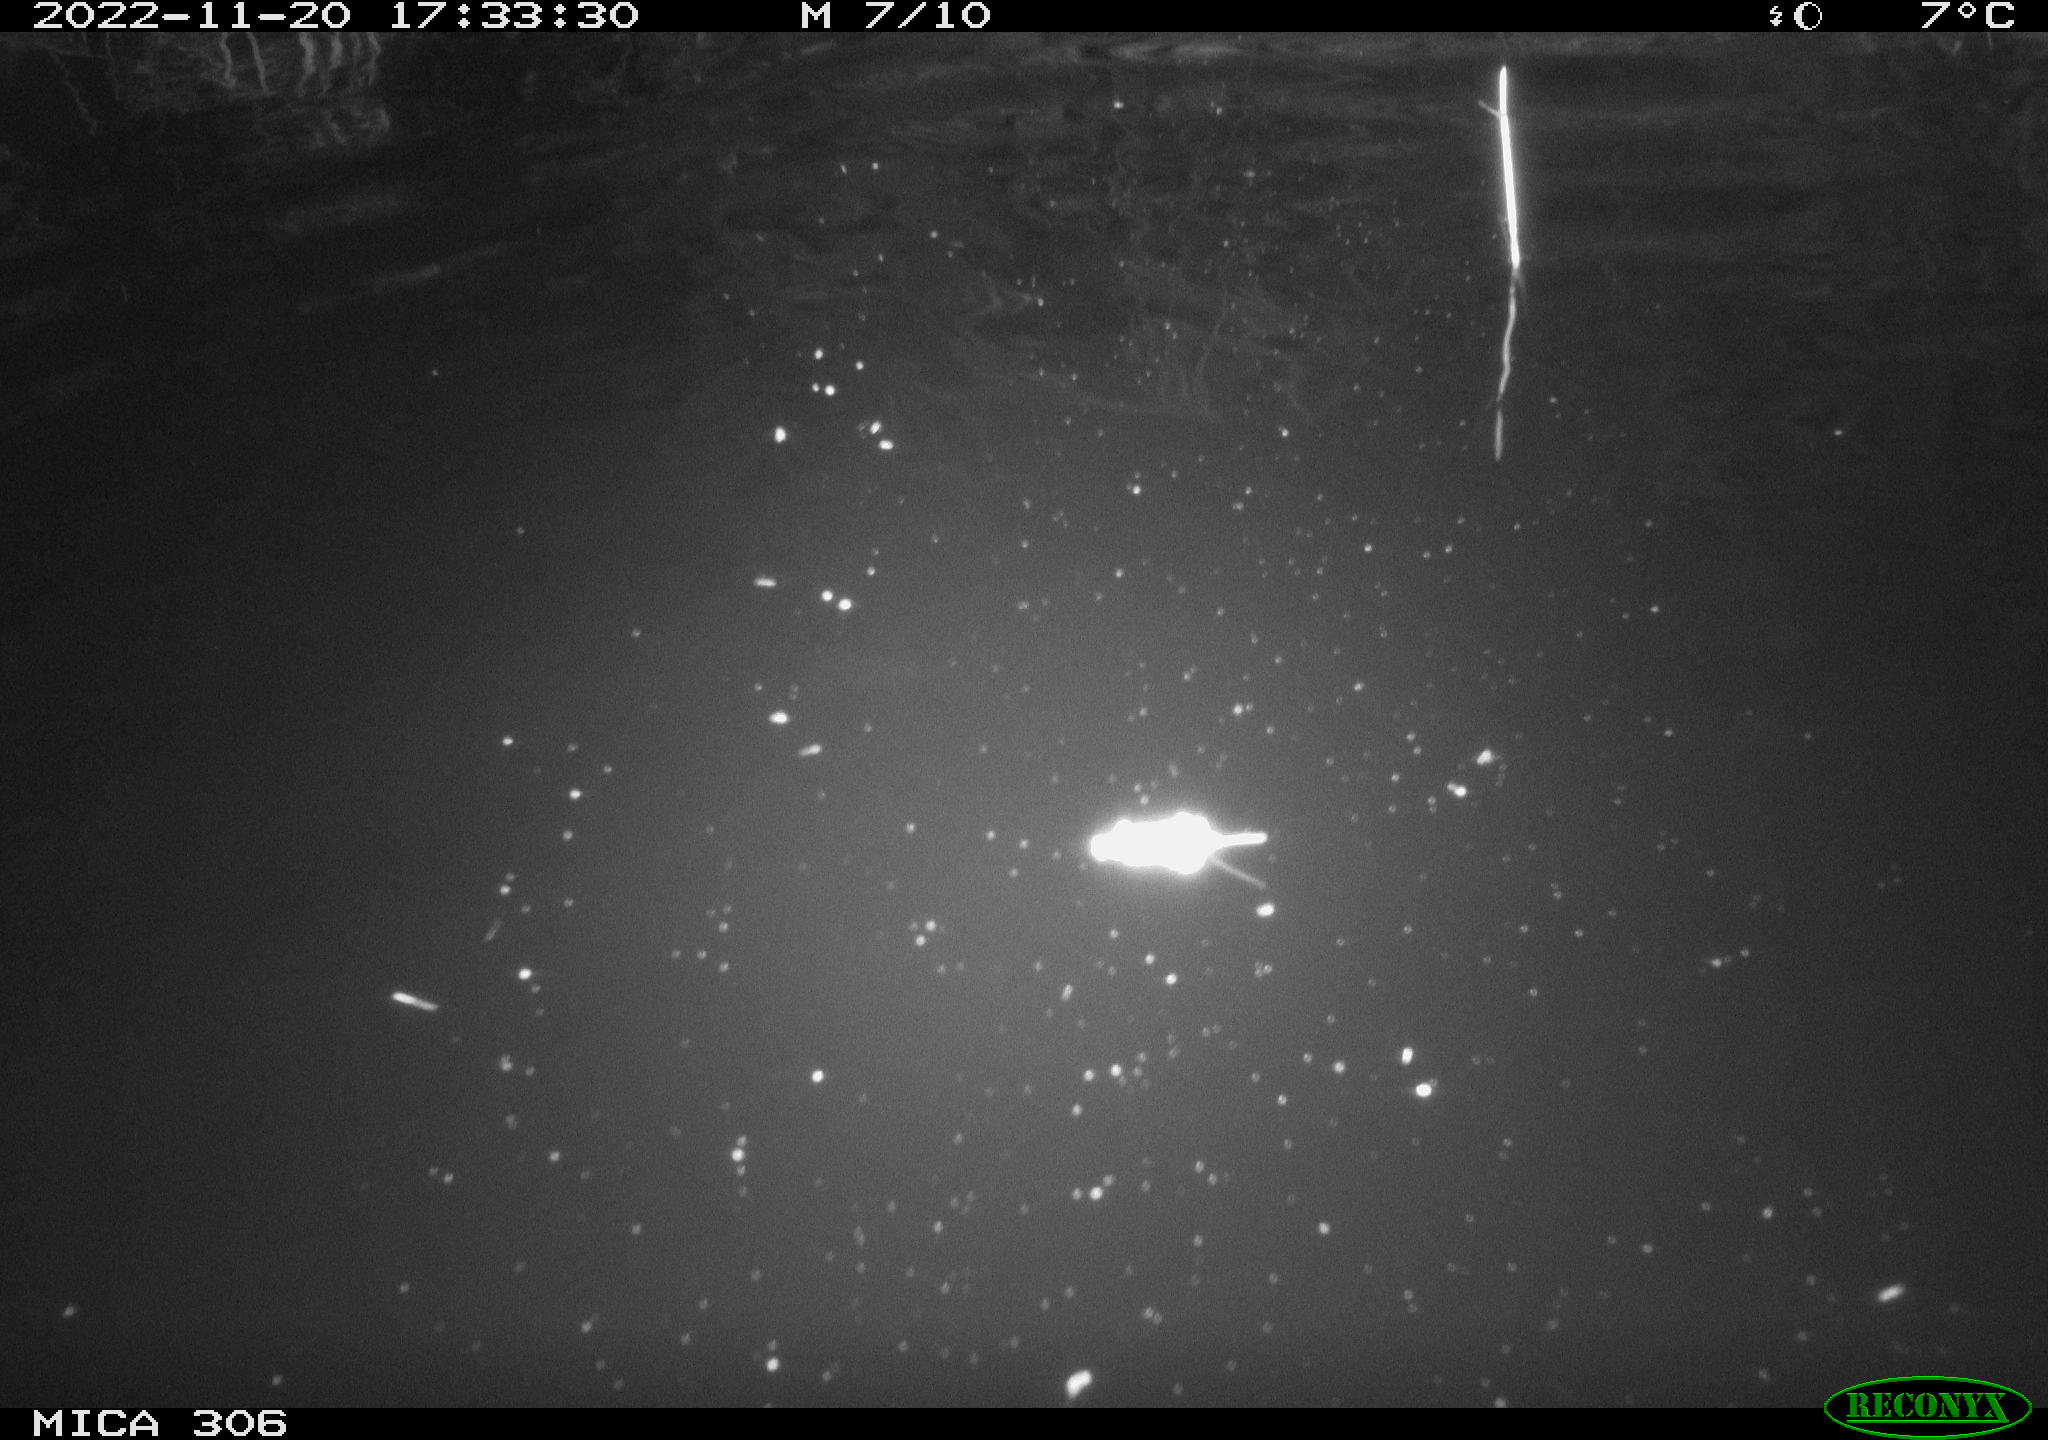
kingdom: Animalia
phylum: Chordata
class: Mammalia
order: Rodentia
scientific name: Rodentia
